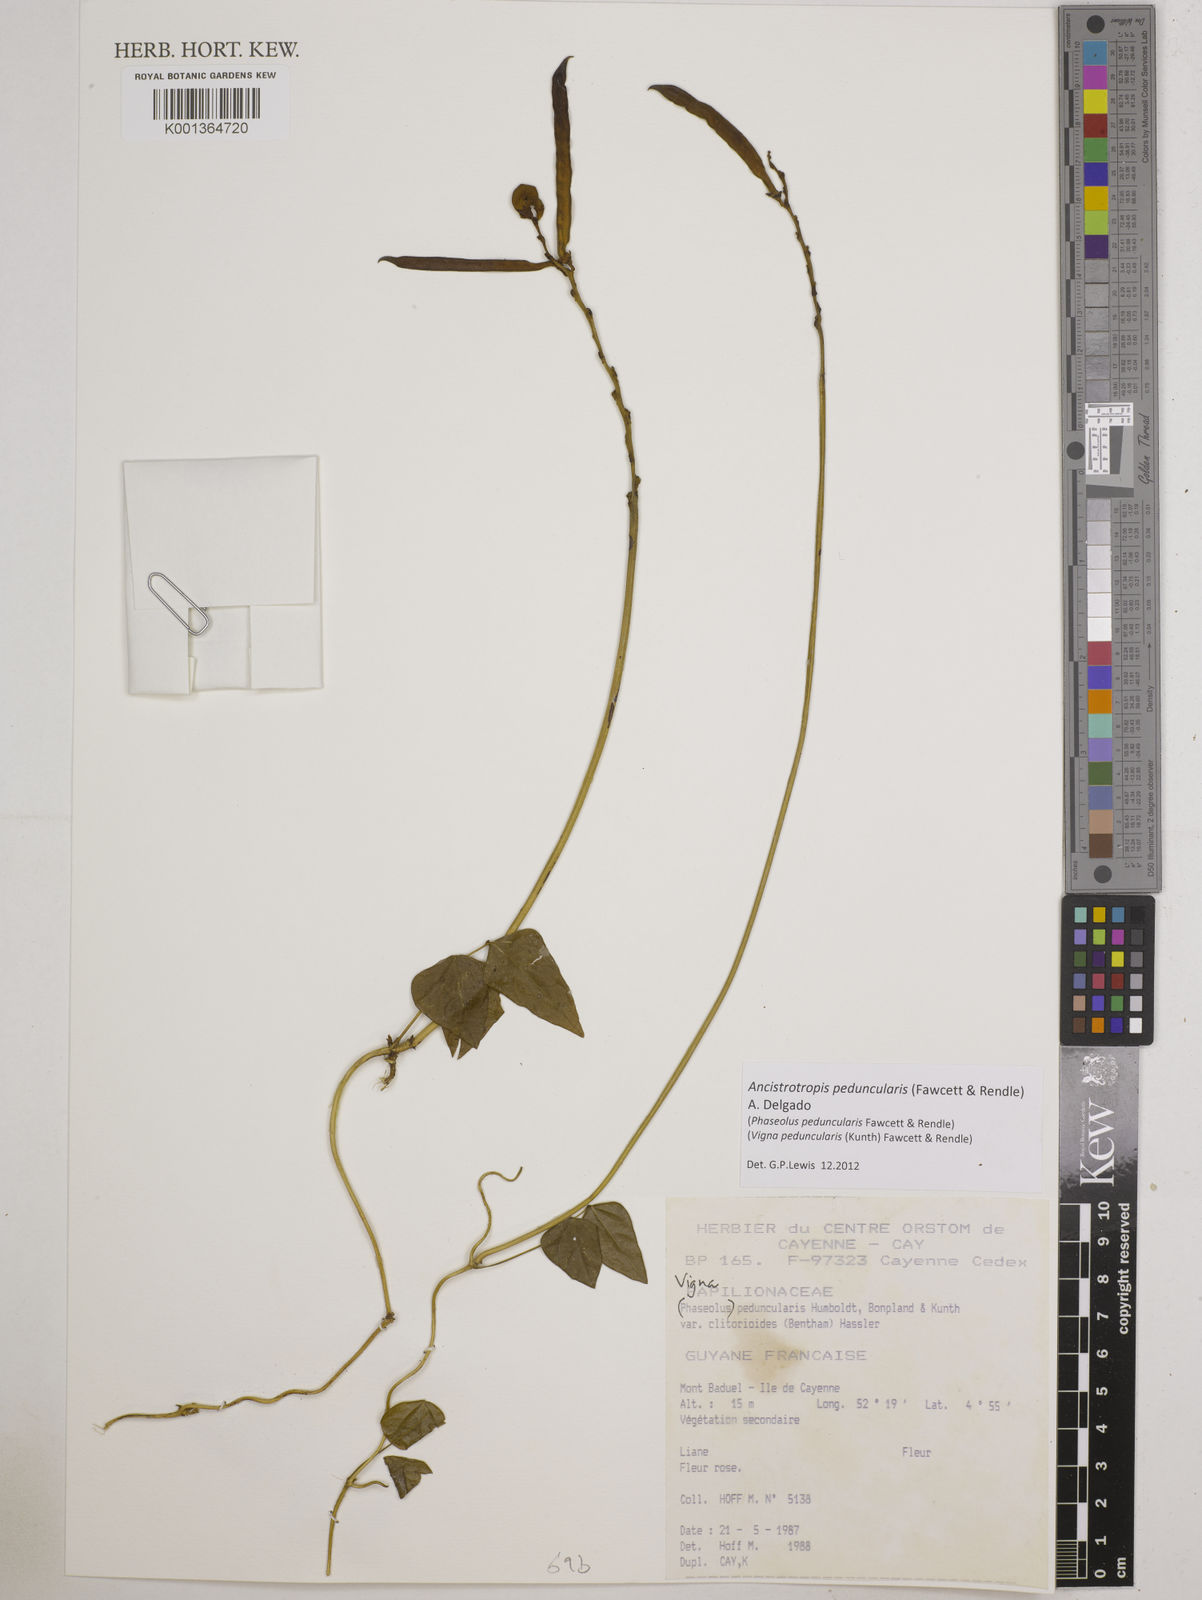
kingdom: Plantae
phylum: Tracheophyta
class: Magnoliopsida
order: Fabales
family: Fabaceae
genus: Ancistrotropis
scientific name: Ancistrotropis peduncularis
